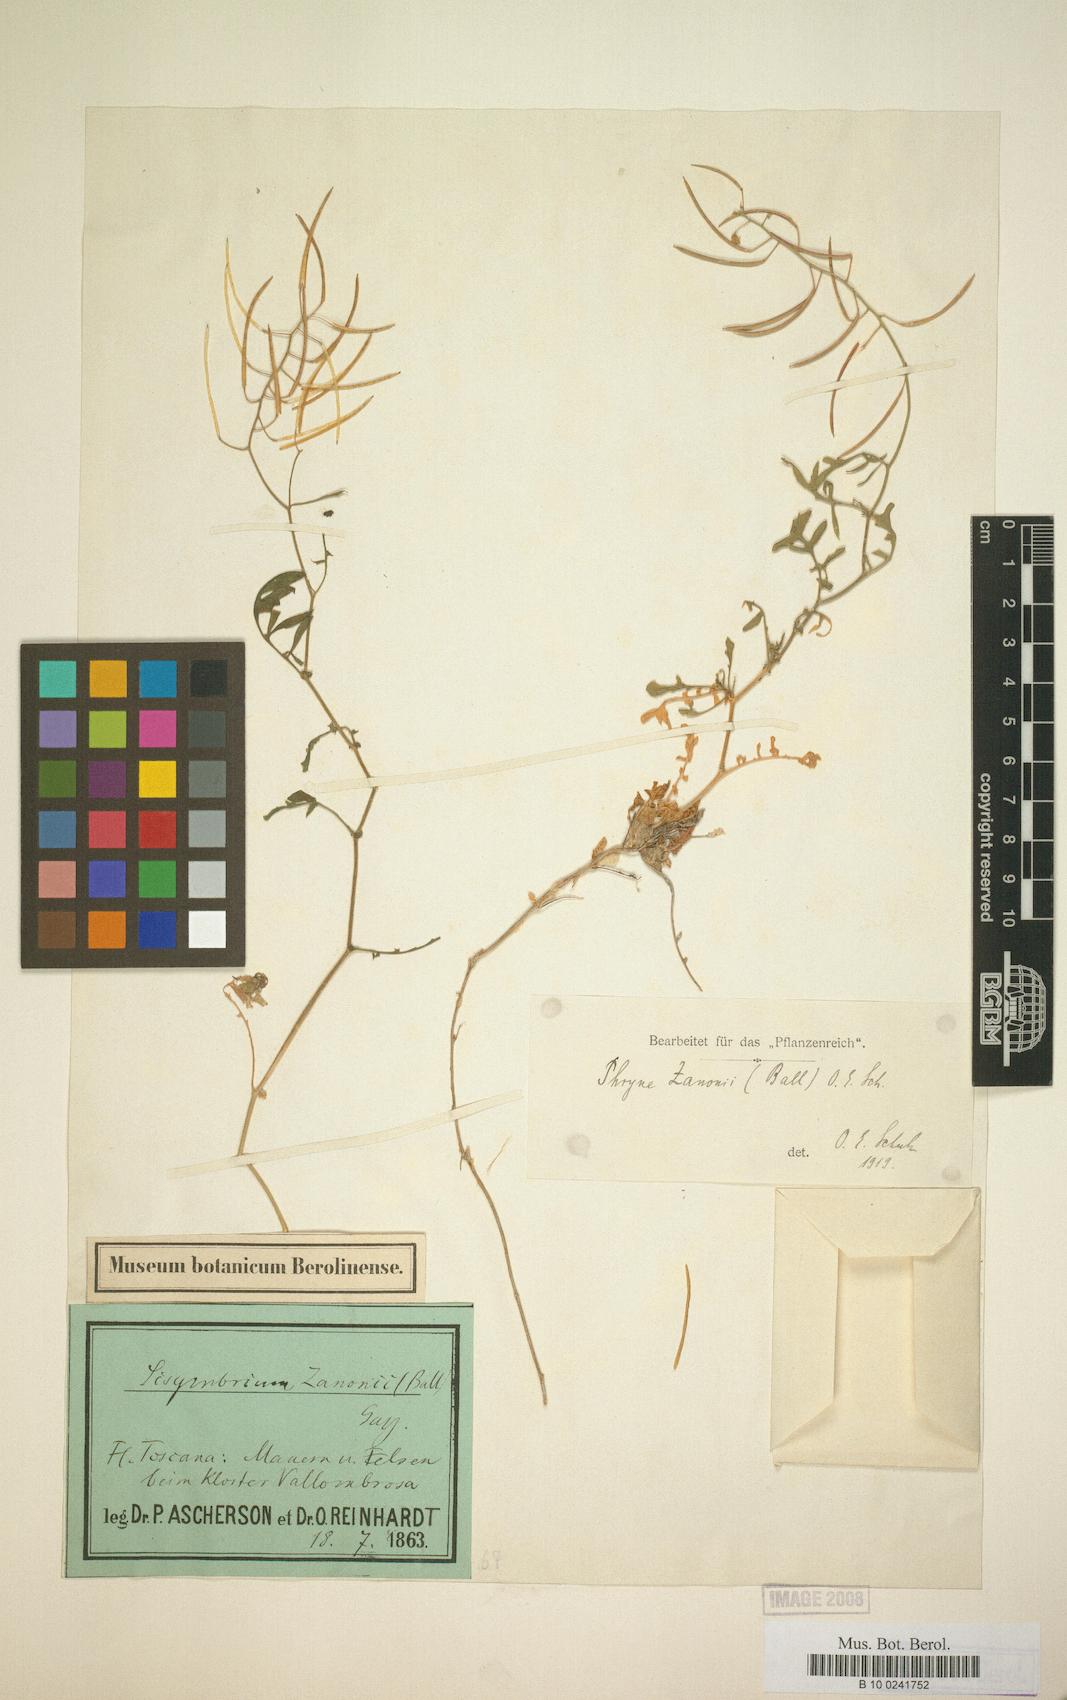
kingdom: Plantae
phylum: Tracheophyta
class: Magnoliopsida
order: Brassicales
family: Stixaceae
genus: Forchhammeria
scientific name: Forchhammeria
